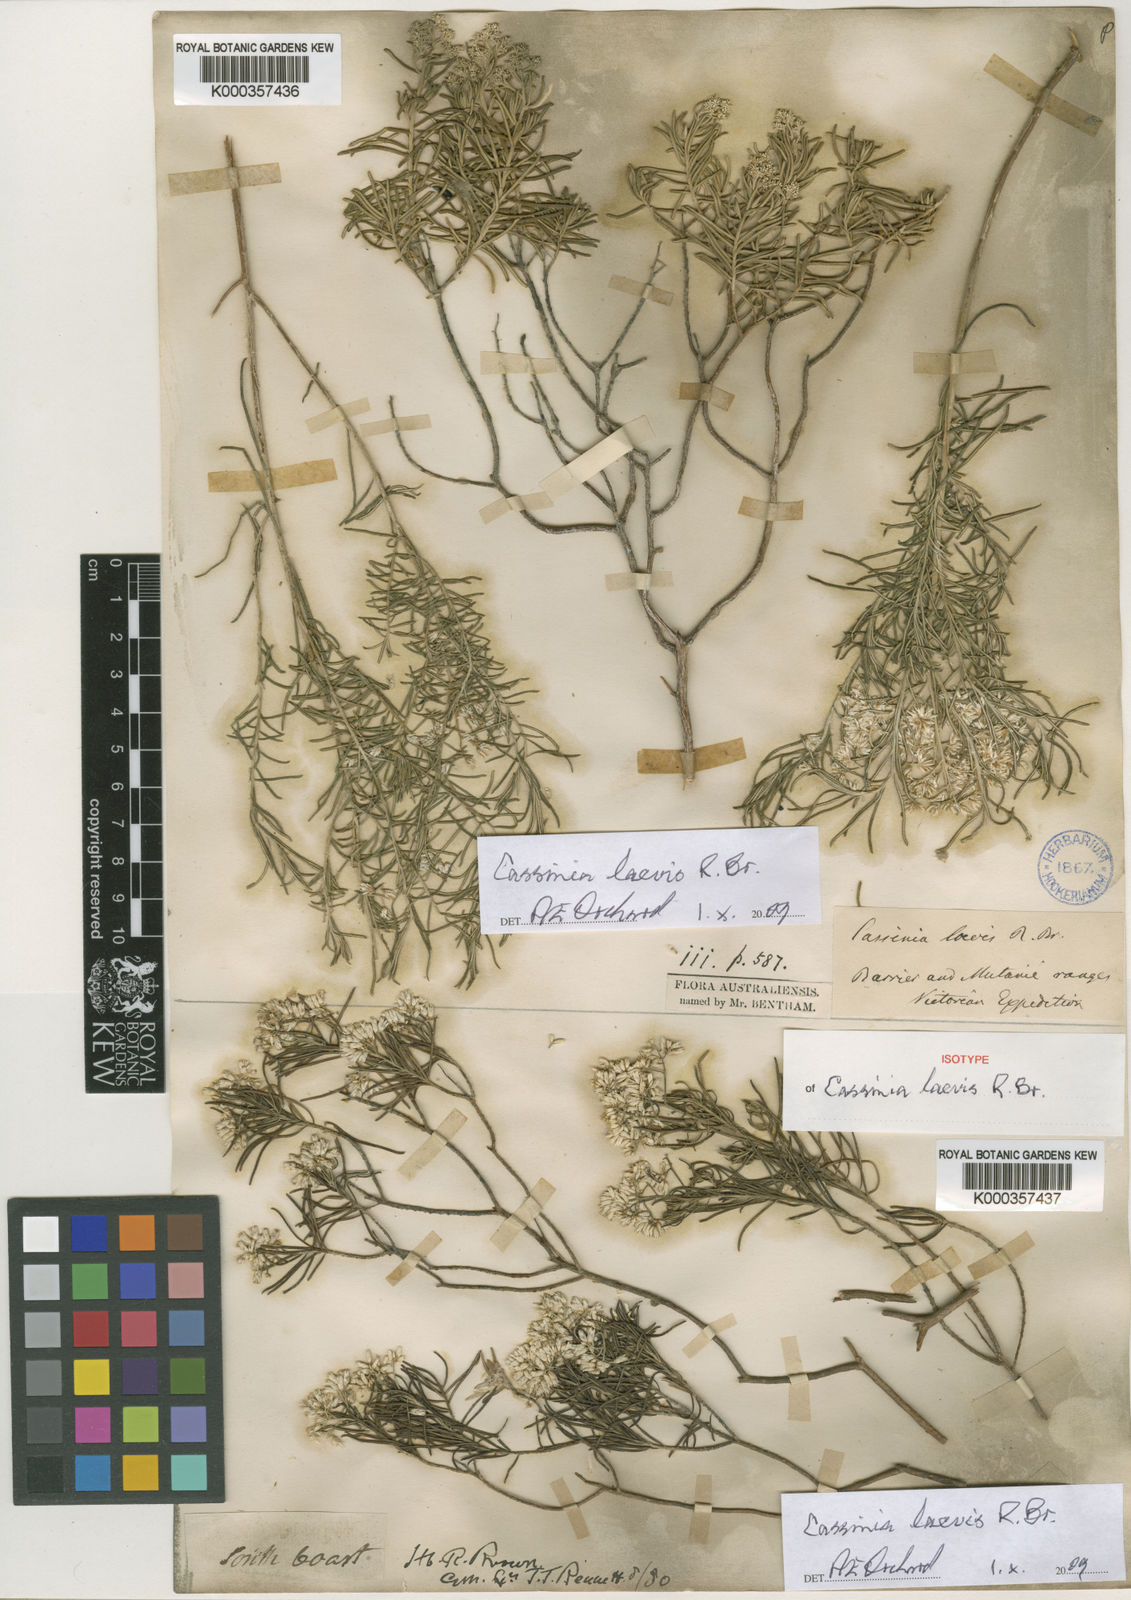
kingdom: Plantae
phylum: Tracheophyta
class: Magnoliopsida
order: Asterales
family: Asteraceae
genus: Cassinia
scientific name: Cassinia laevis
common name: Coughbush
